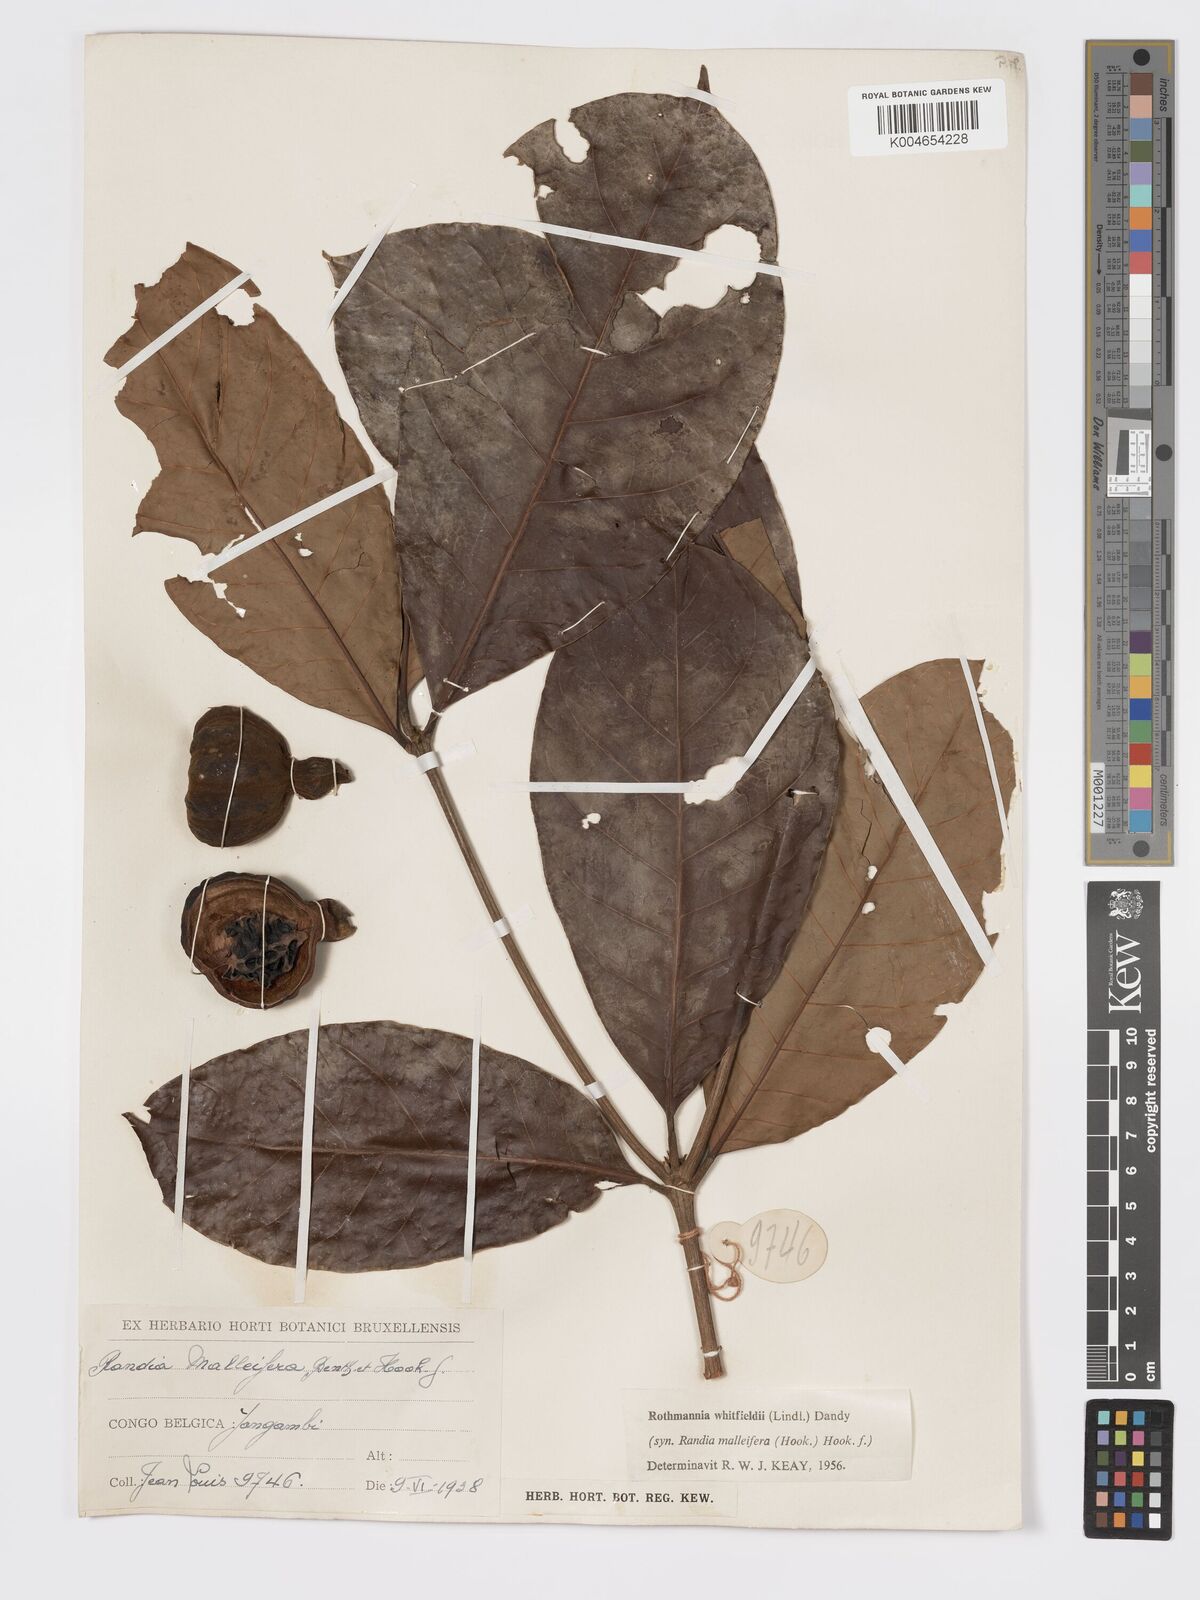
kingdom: Plantae
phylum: Tracheophyta
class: Magnoliopsida
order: Gentianales
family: Rubiaceae
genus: Rothmannia
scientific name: Rothmannia whitfieldii
